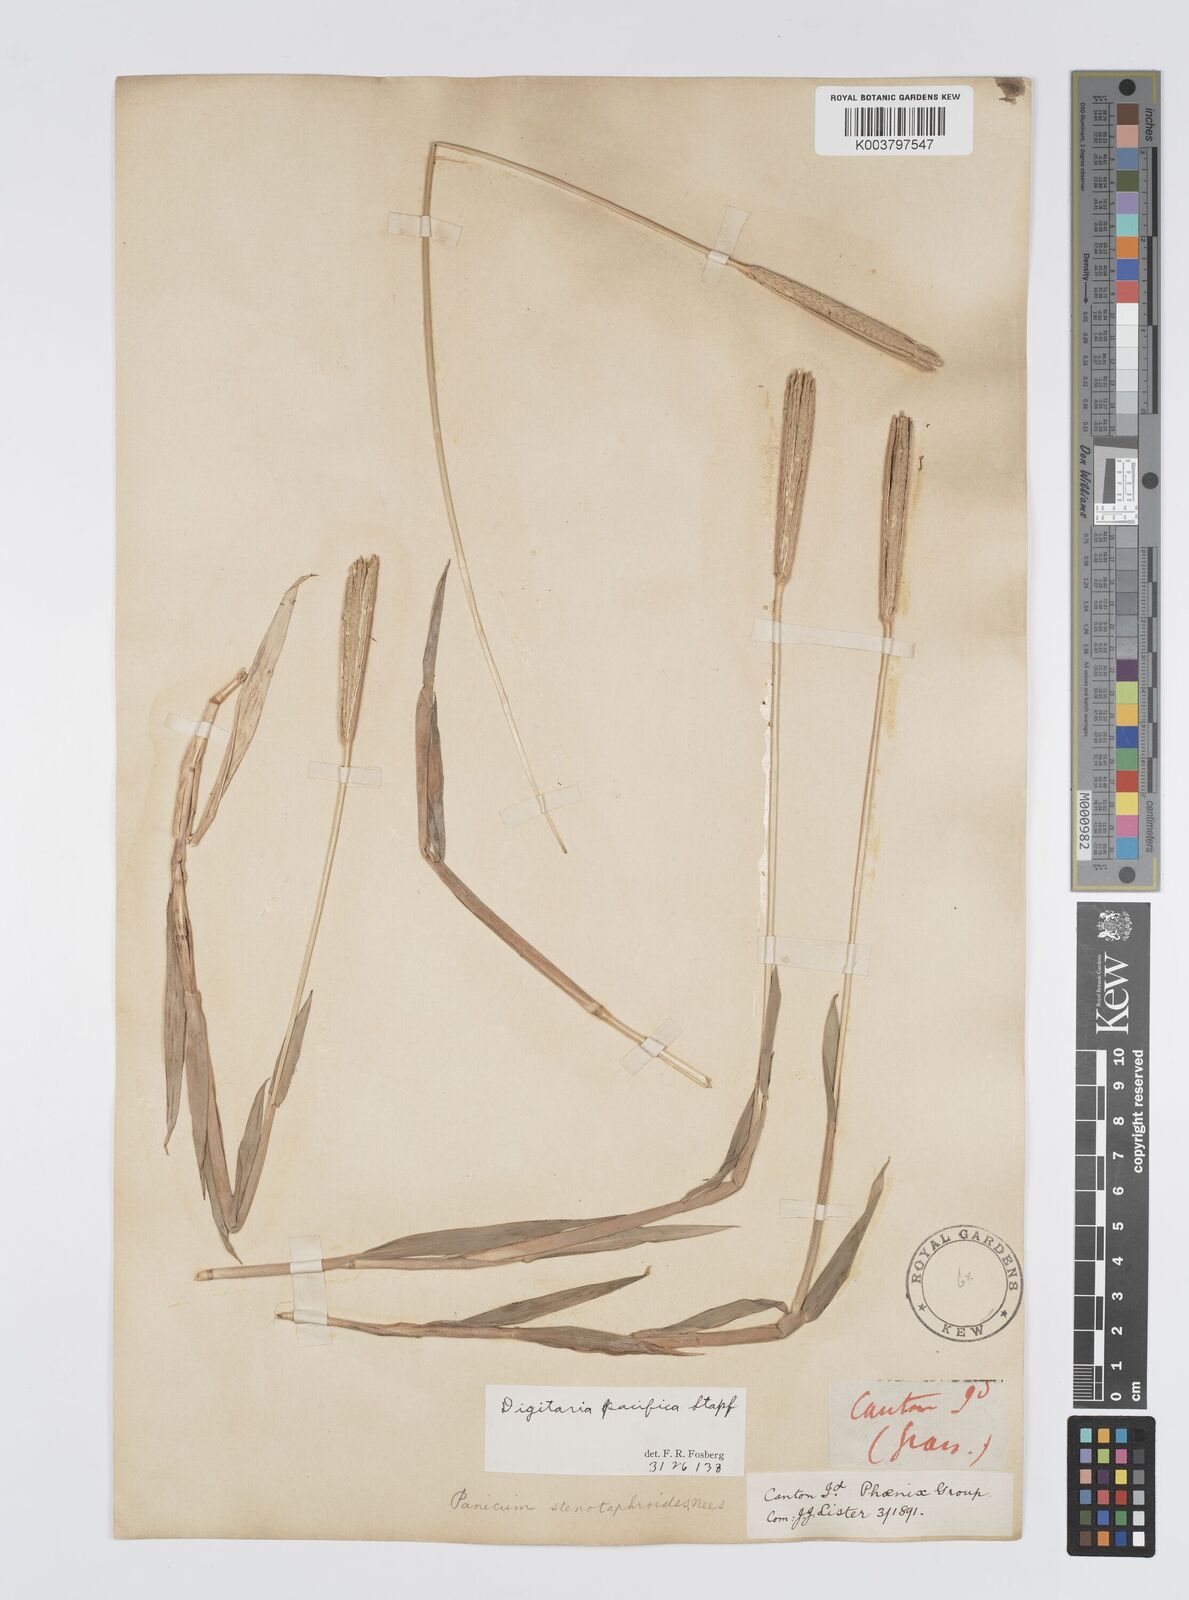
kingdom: Plantae
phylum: Tracheophyta
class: Liliopsida
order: Poales
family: Poaceae
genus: Digitaria
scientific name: Digitaria stenotaphrodes
